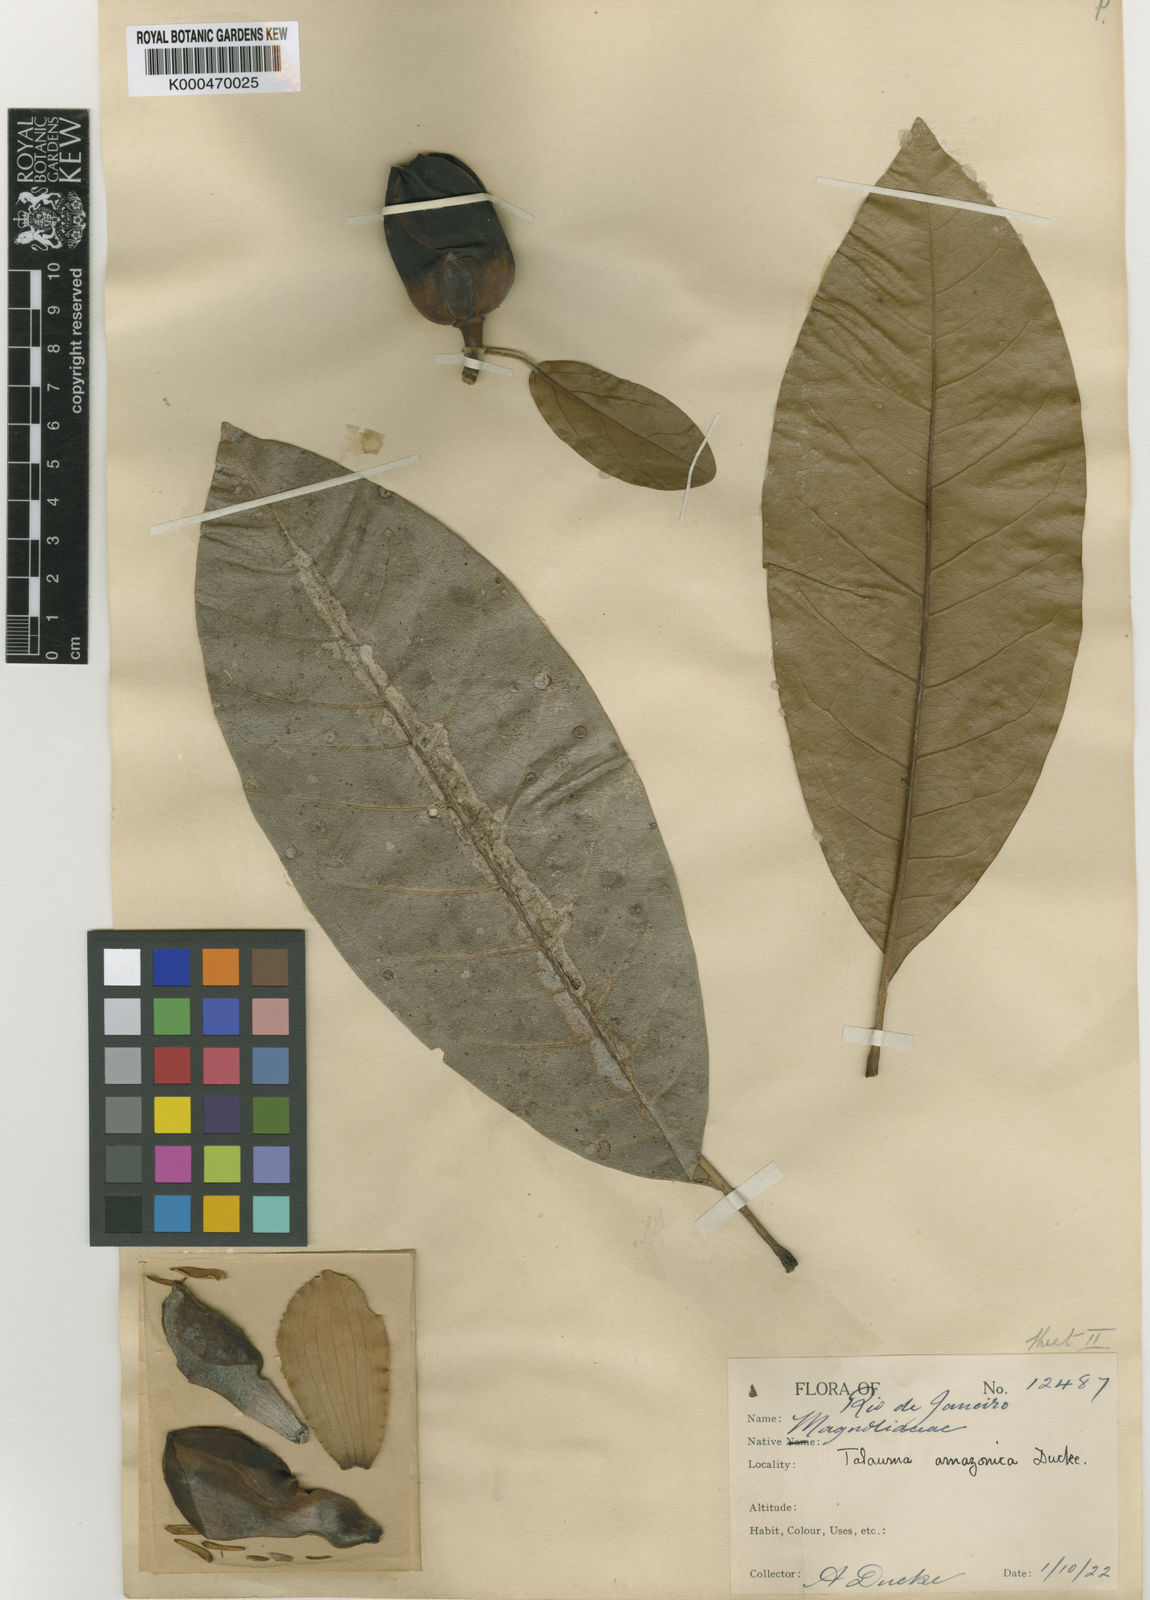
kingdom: Plantae
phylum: Tracheophyta
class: Magnoliopsida
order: Magnoliales
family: Magnoliaceae
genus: Magnolia
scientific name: Magnolia amazonica
